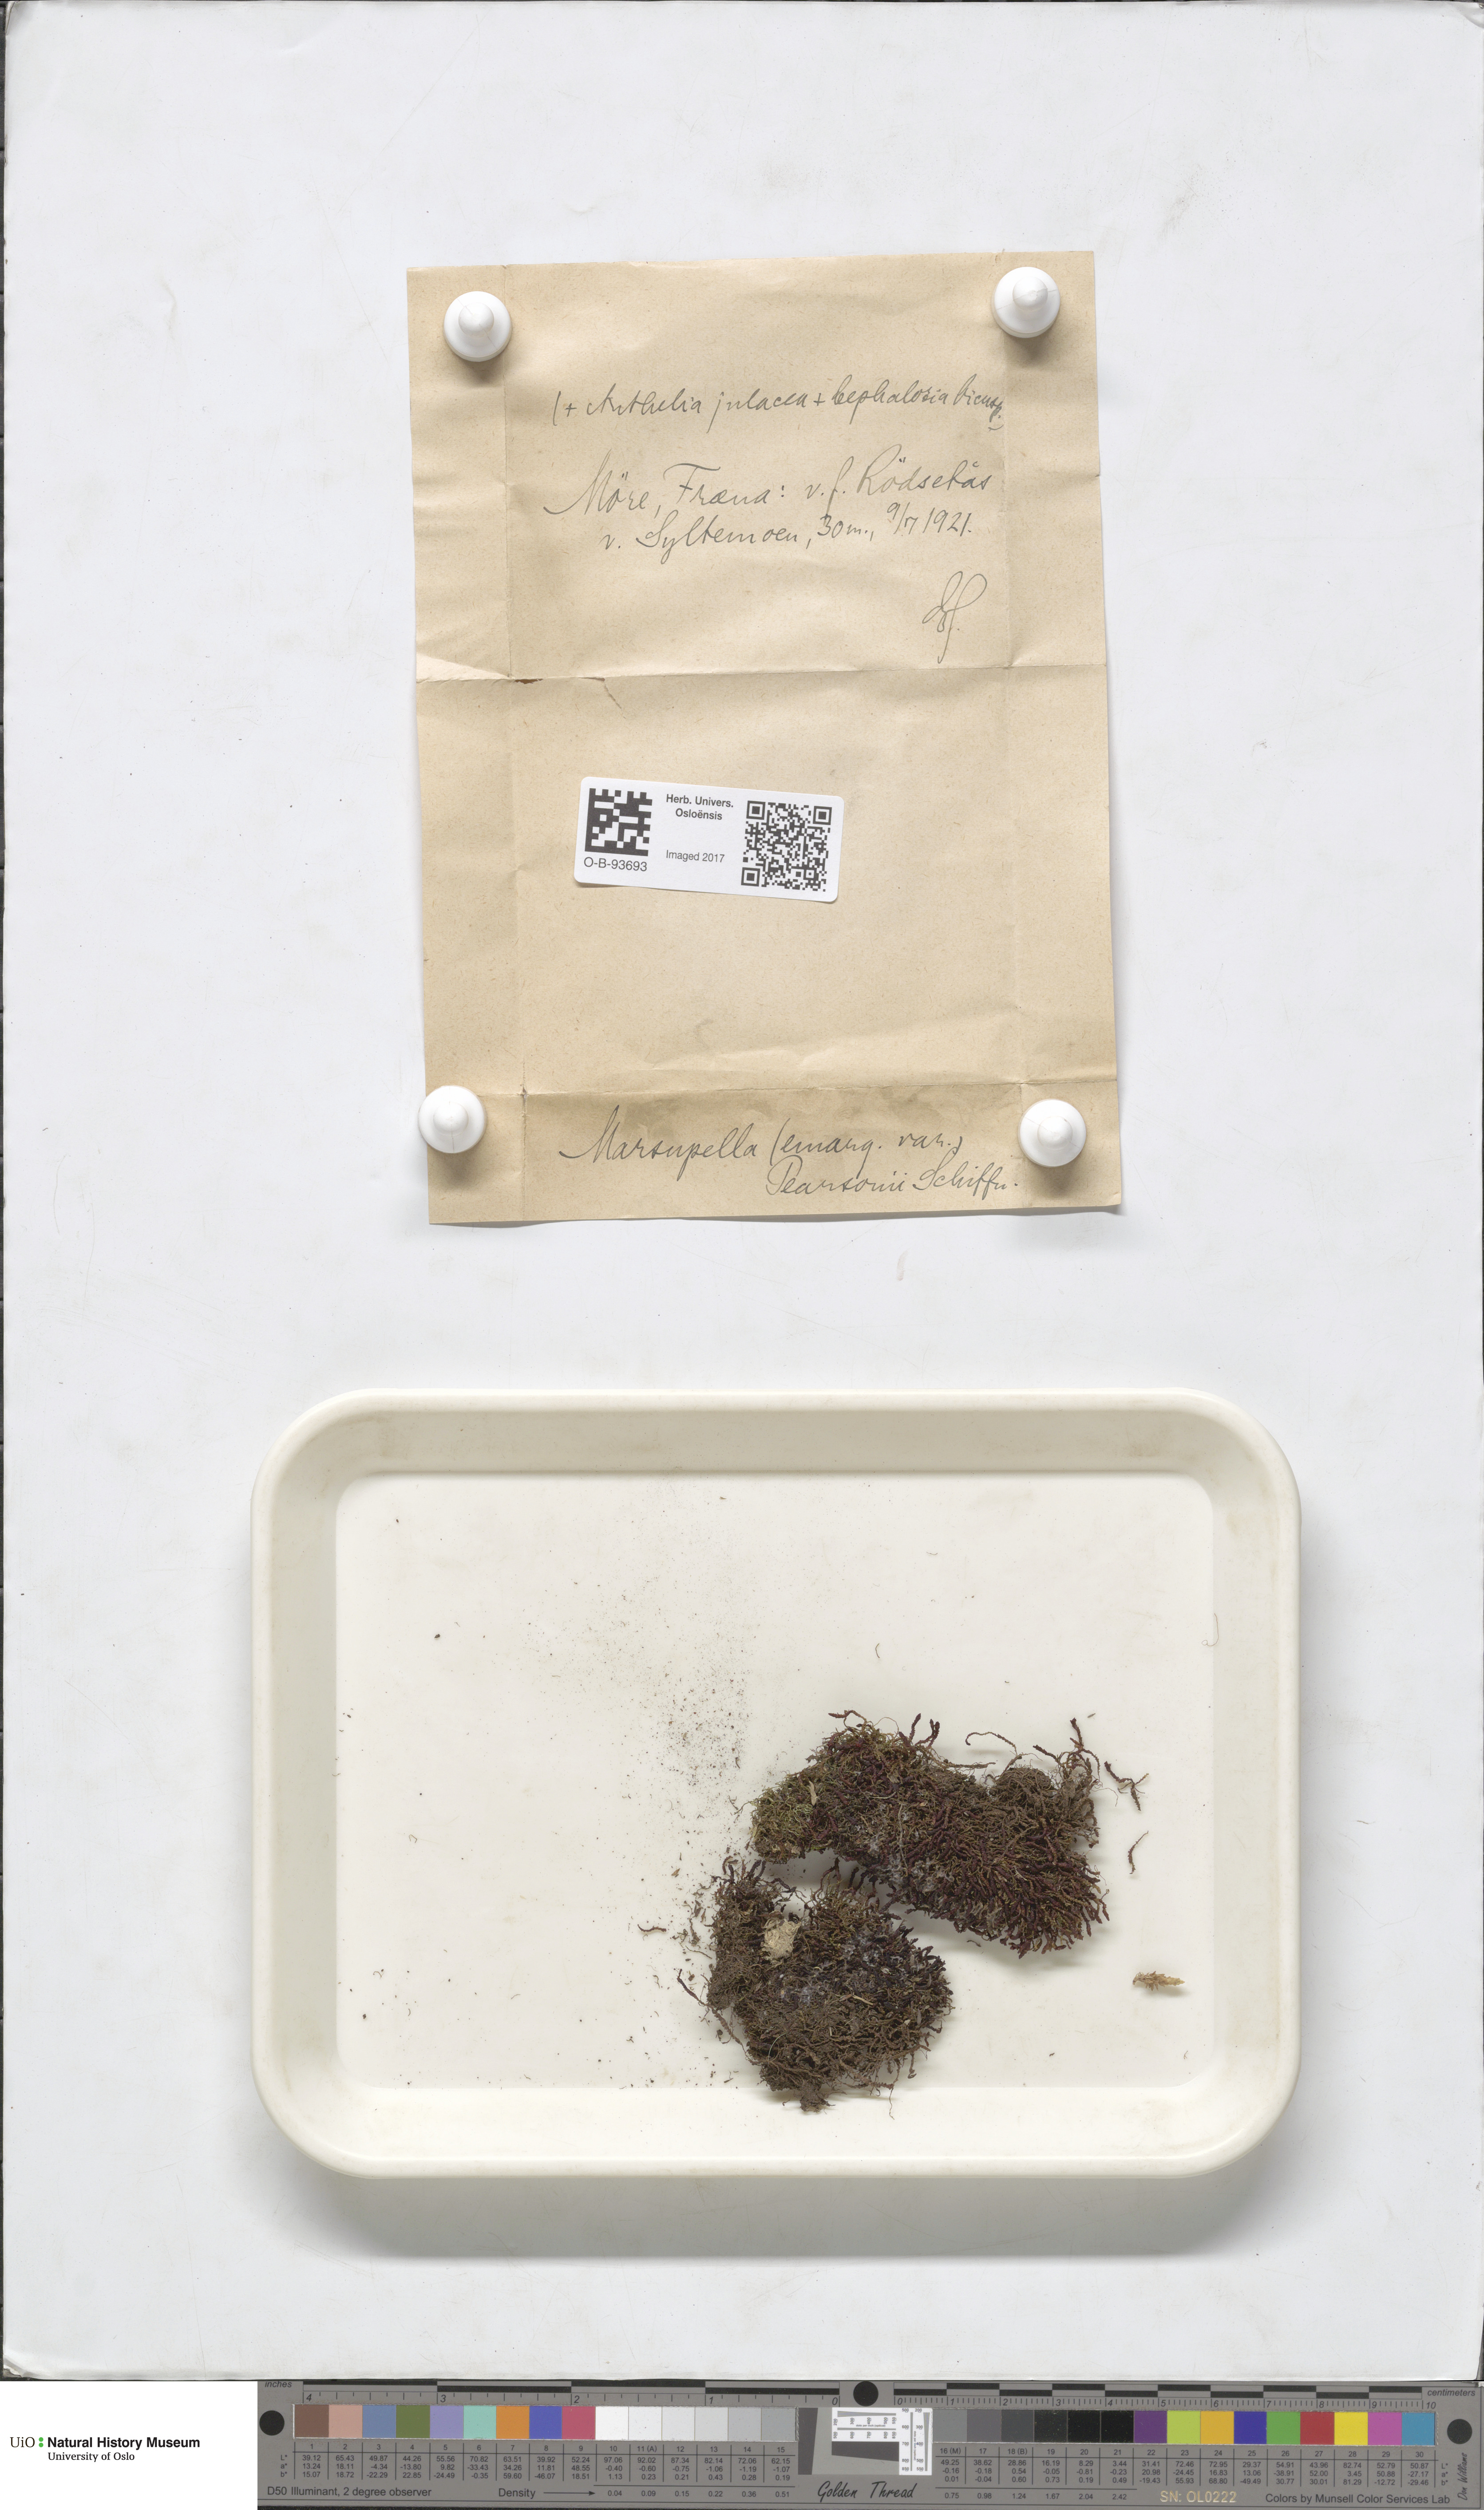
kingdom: Plantae
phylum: Marchantiophyta
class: Jungermanniopsida
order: Jungermanniales
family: Gymnomitriaceae
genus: Marsupella
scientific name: Marsupella emarginata
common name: Notched rustwort
